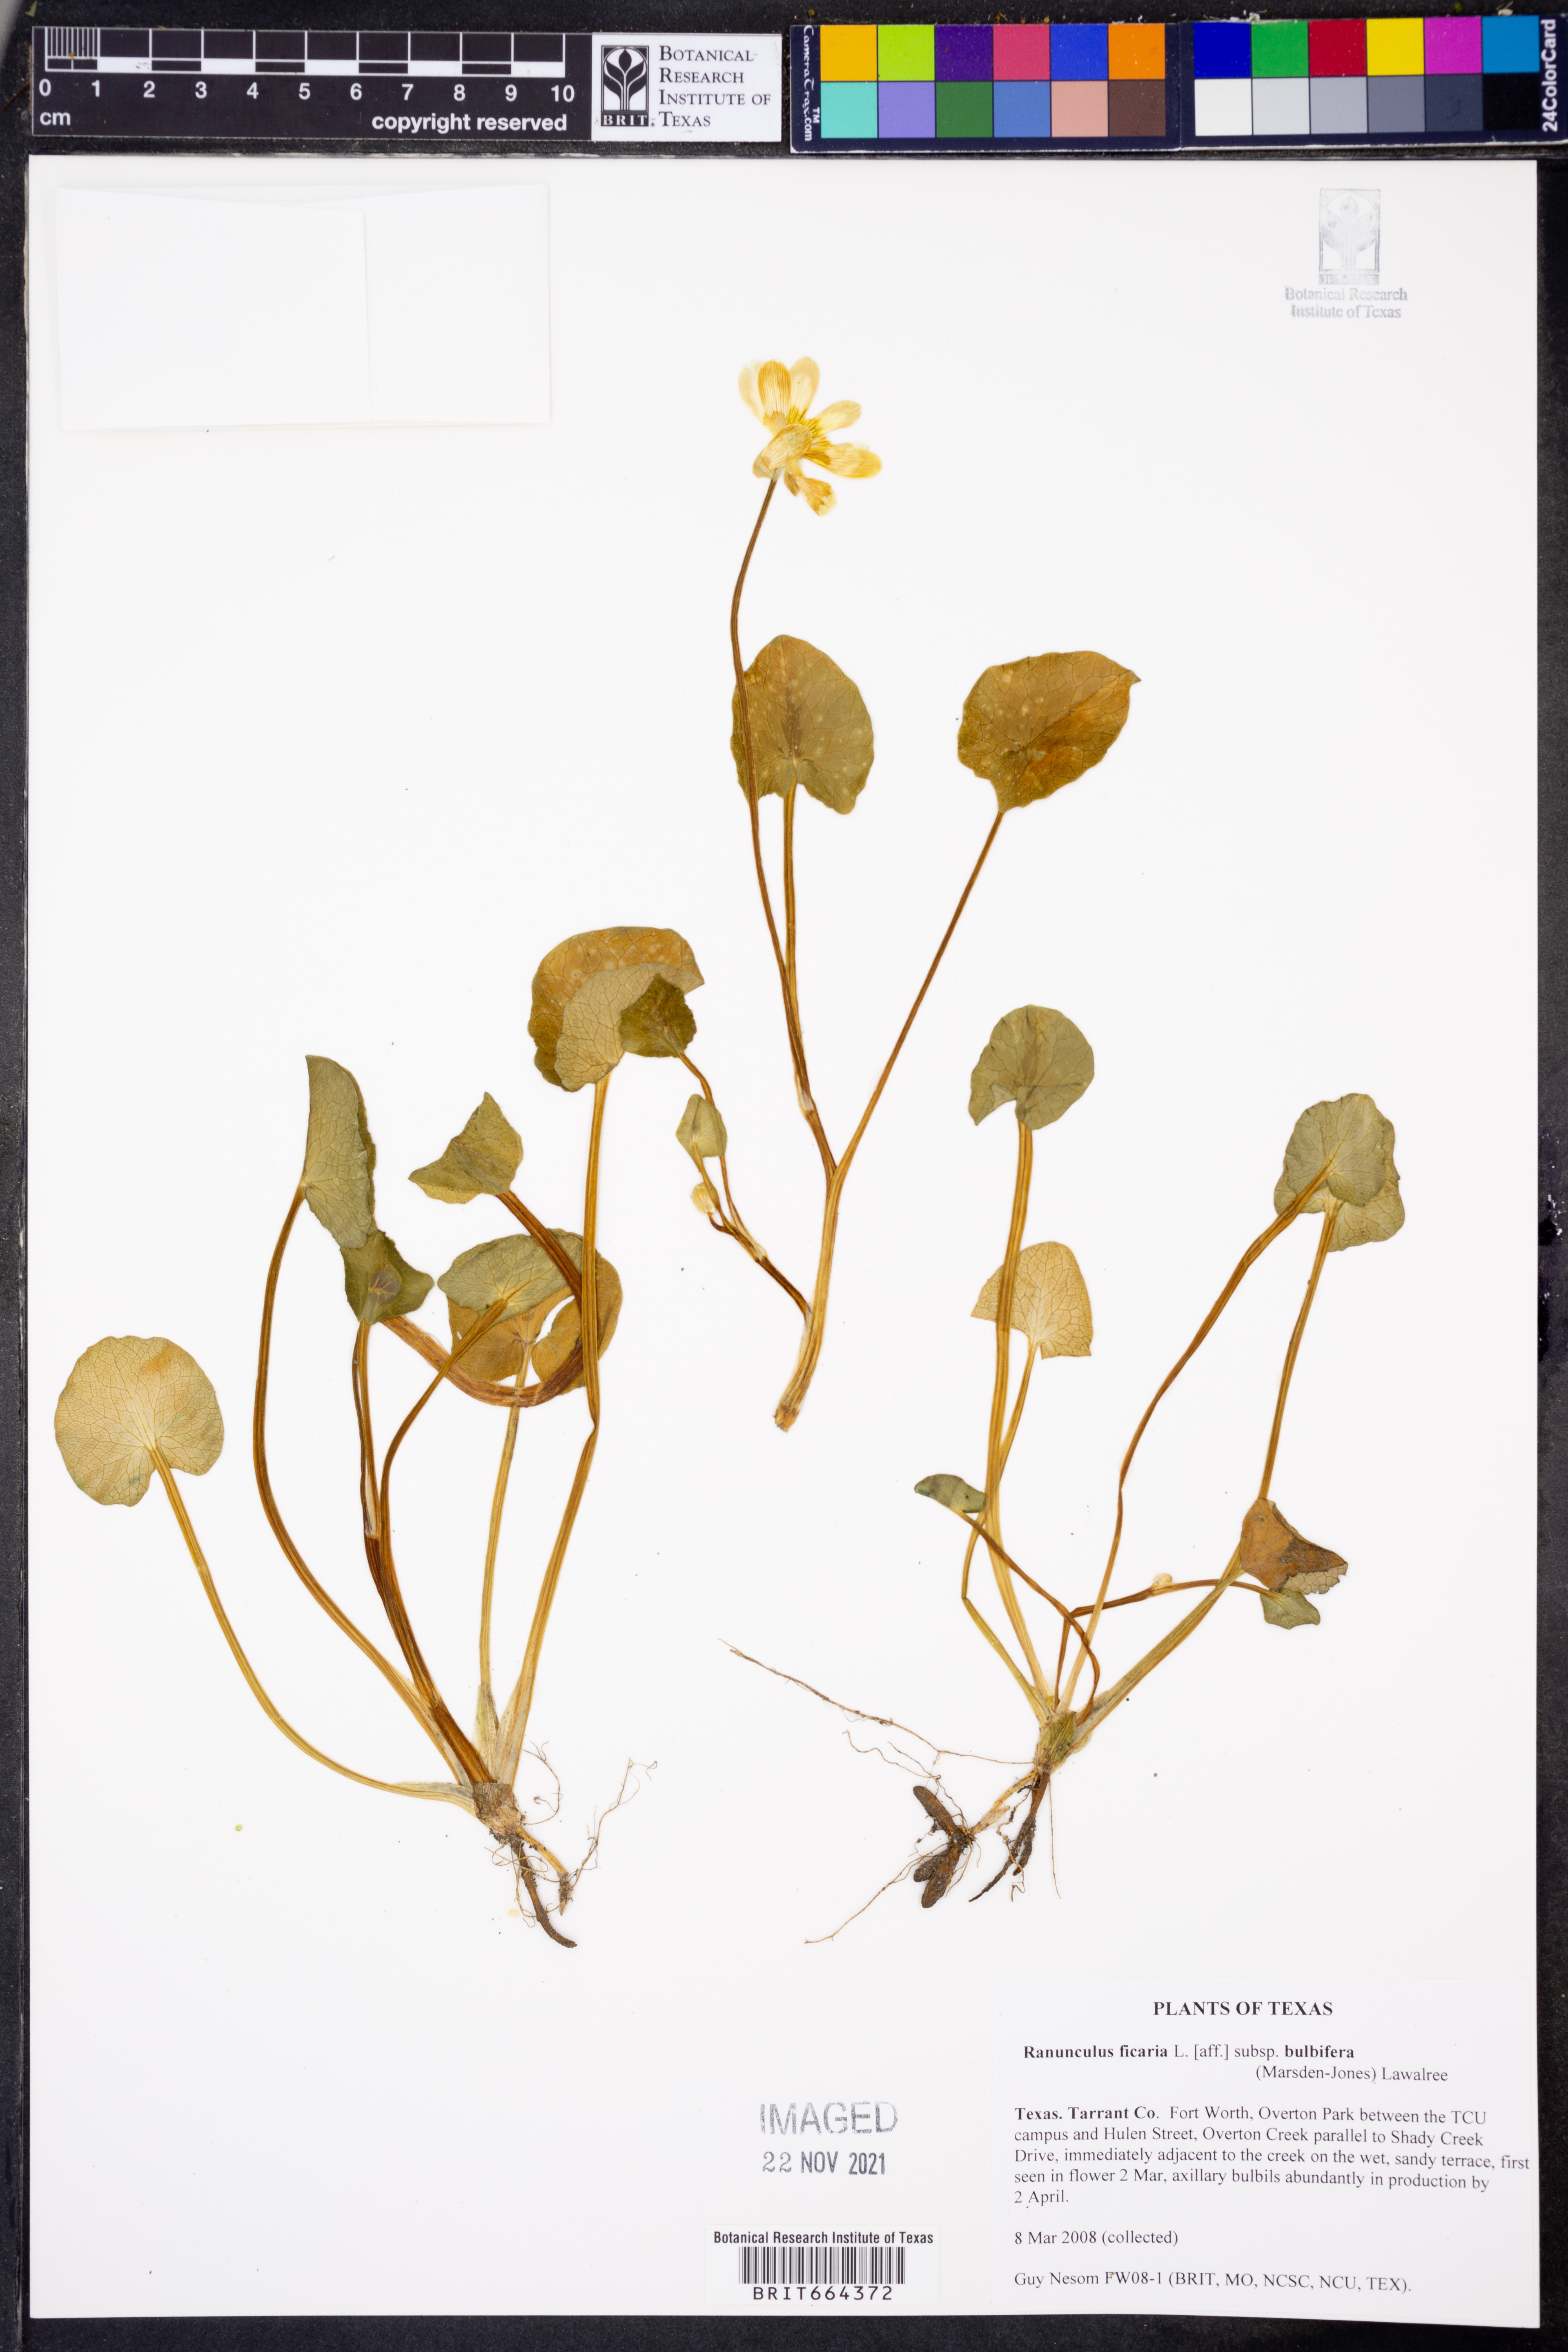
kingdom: Plantae
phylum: Tracheophyta
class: Magnoliopsida
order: Ranunculales
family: Ranunculaceae
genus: Ficaria
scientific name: Ficaria verna
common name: Lesser celandine
